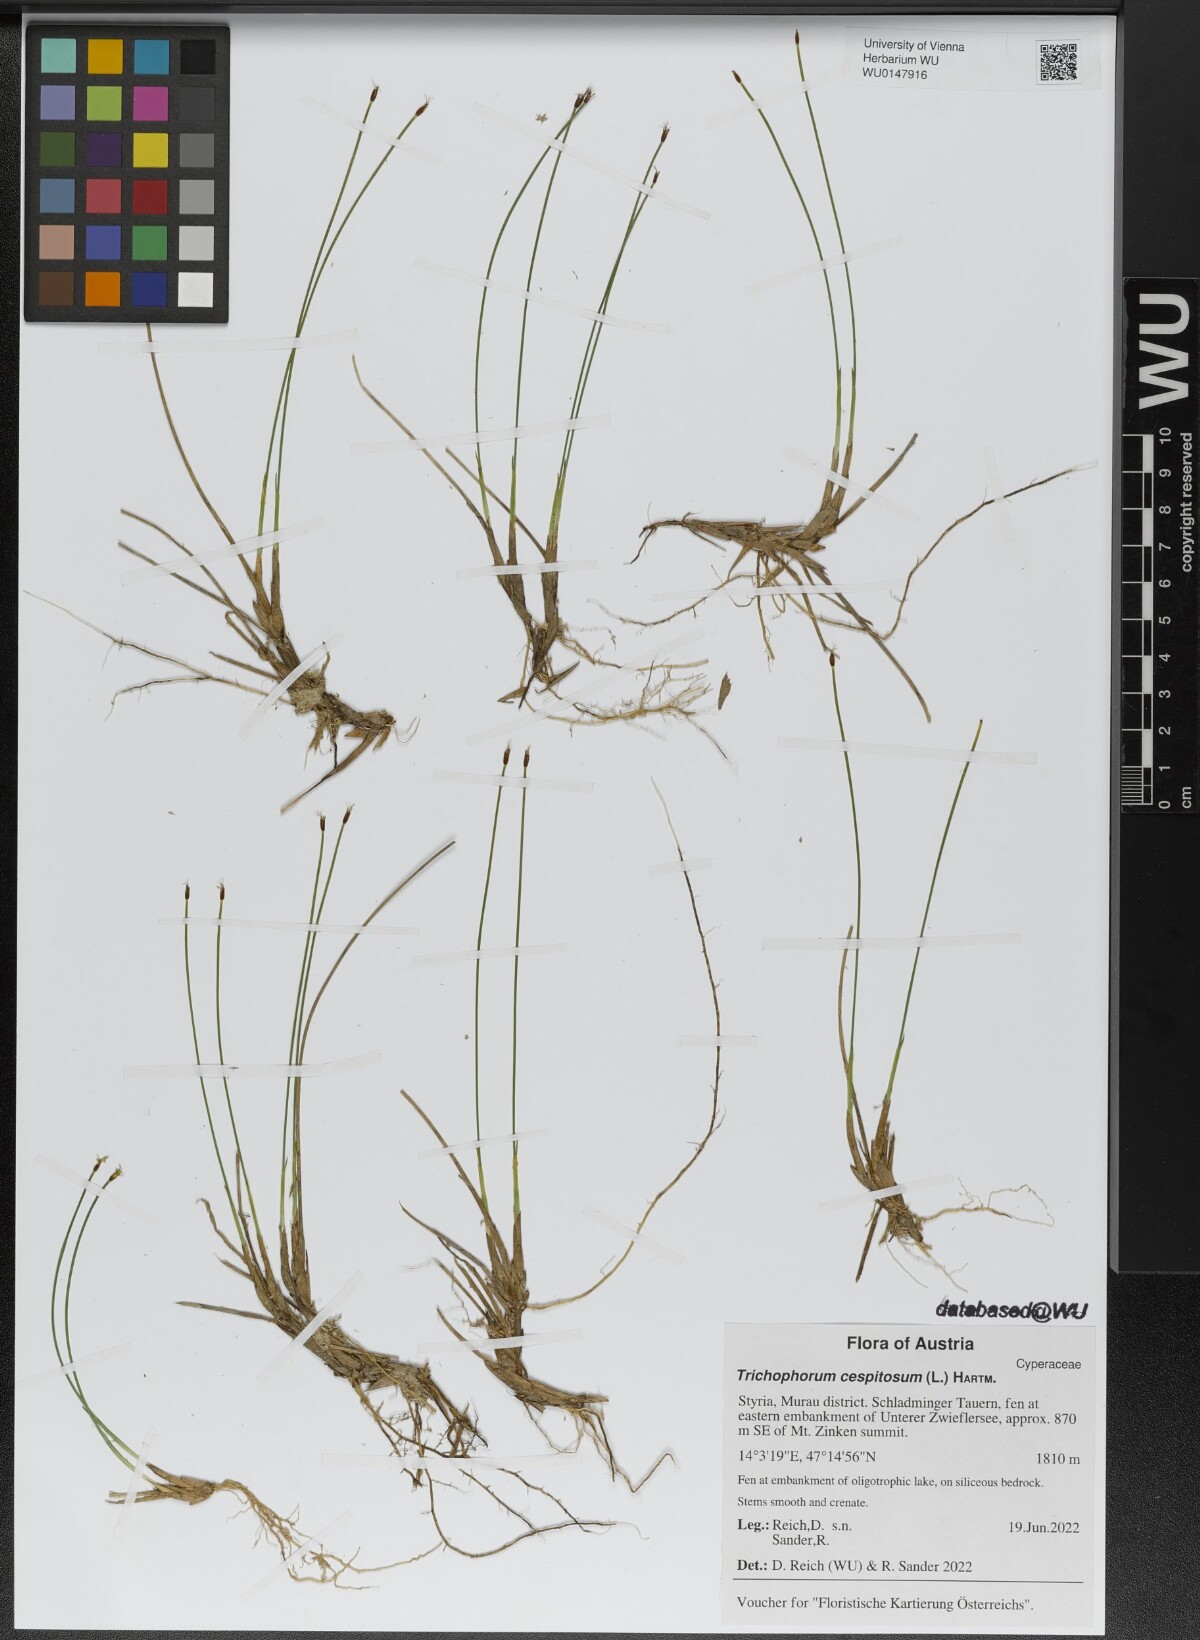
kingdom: Plantae
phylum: Tracheophyta
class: Liliopsida
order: Poales
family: Cyperaceae
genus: Trichophorum
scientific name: Trichophorum cespitosum
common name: Cespitose bulrush
